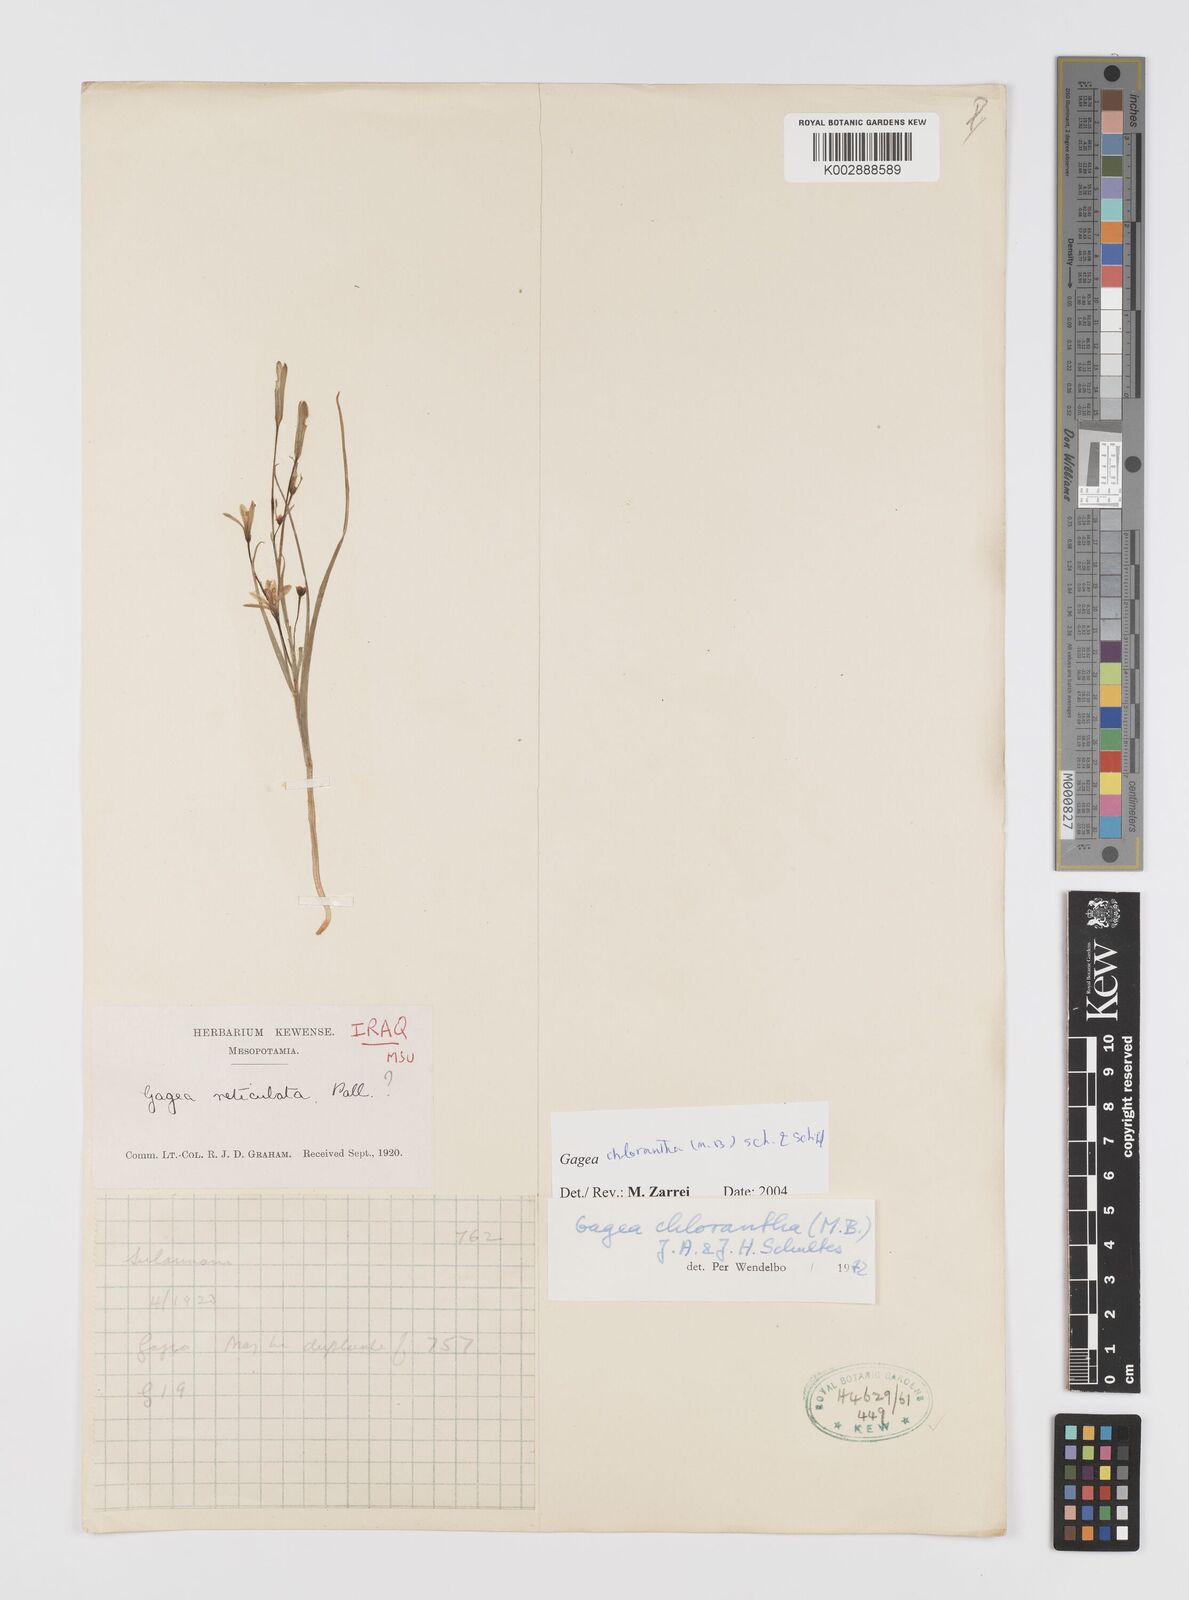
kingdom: Plantae
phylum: Tracheophyta
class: Liliopsida
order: Liliales
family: Liliaceae
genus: Gagea
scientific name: Gagea chlorantha
